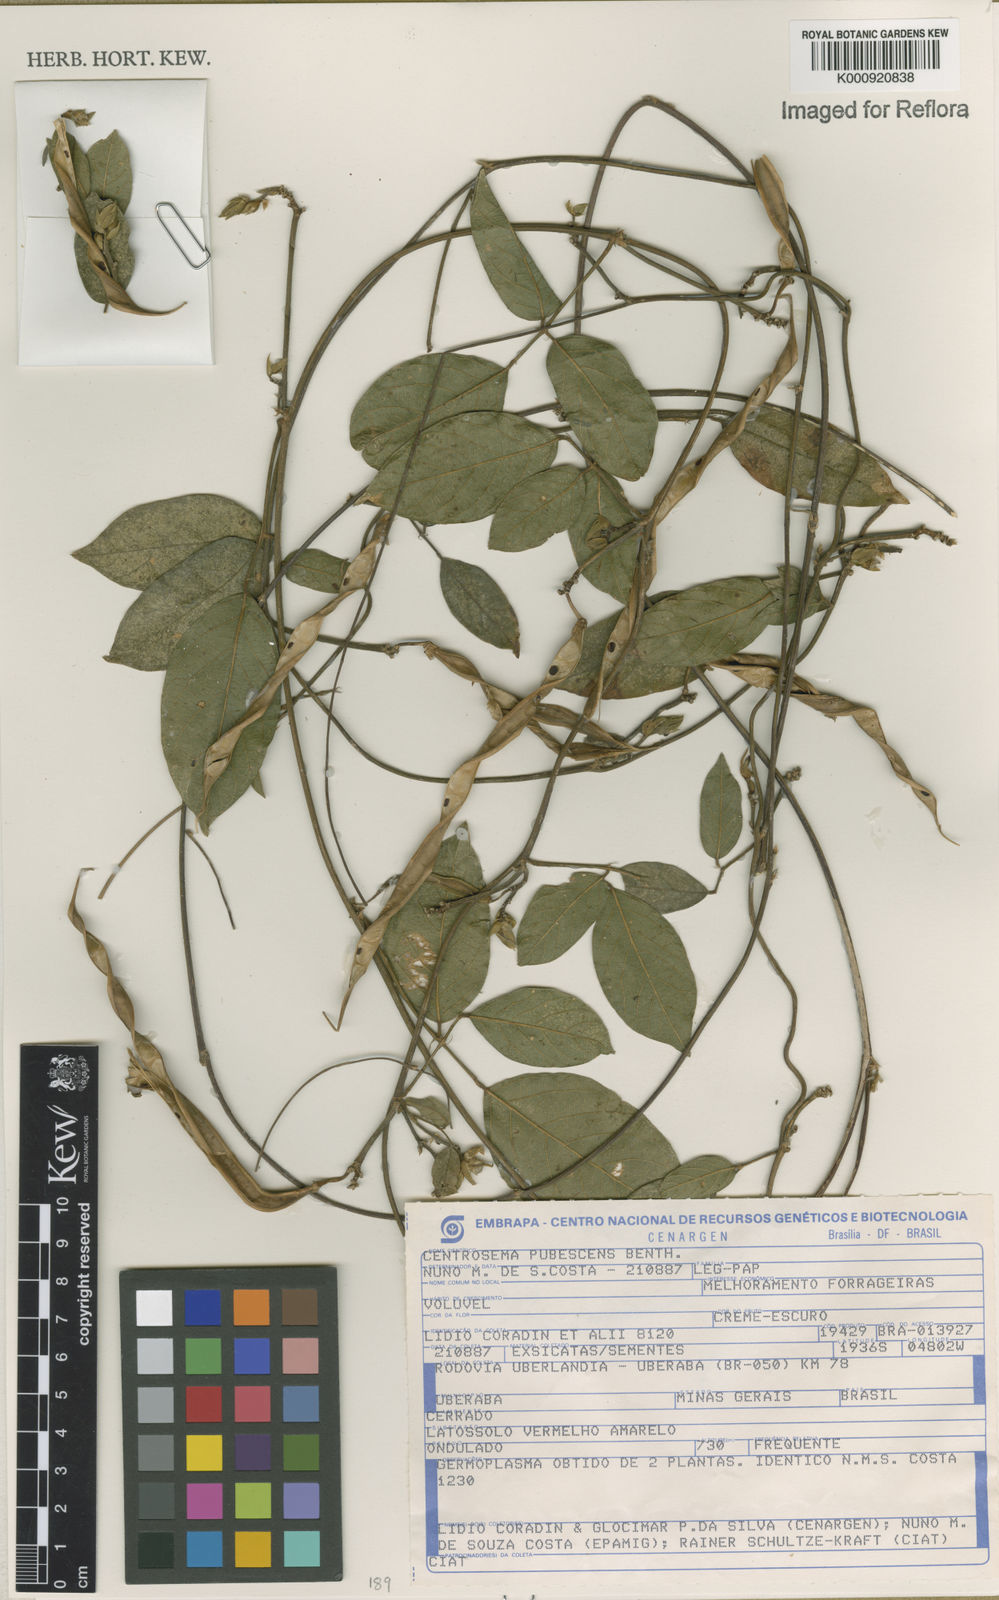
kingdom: Plantae
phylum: Tracheophyta
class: Magnoliopsida
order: Fabales
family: Fabaceae
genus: Centrosema
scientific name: Centrosema pubescens
